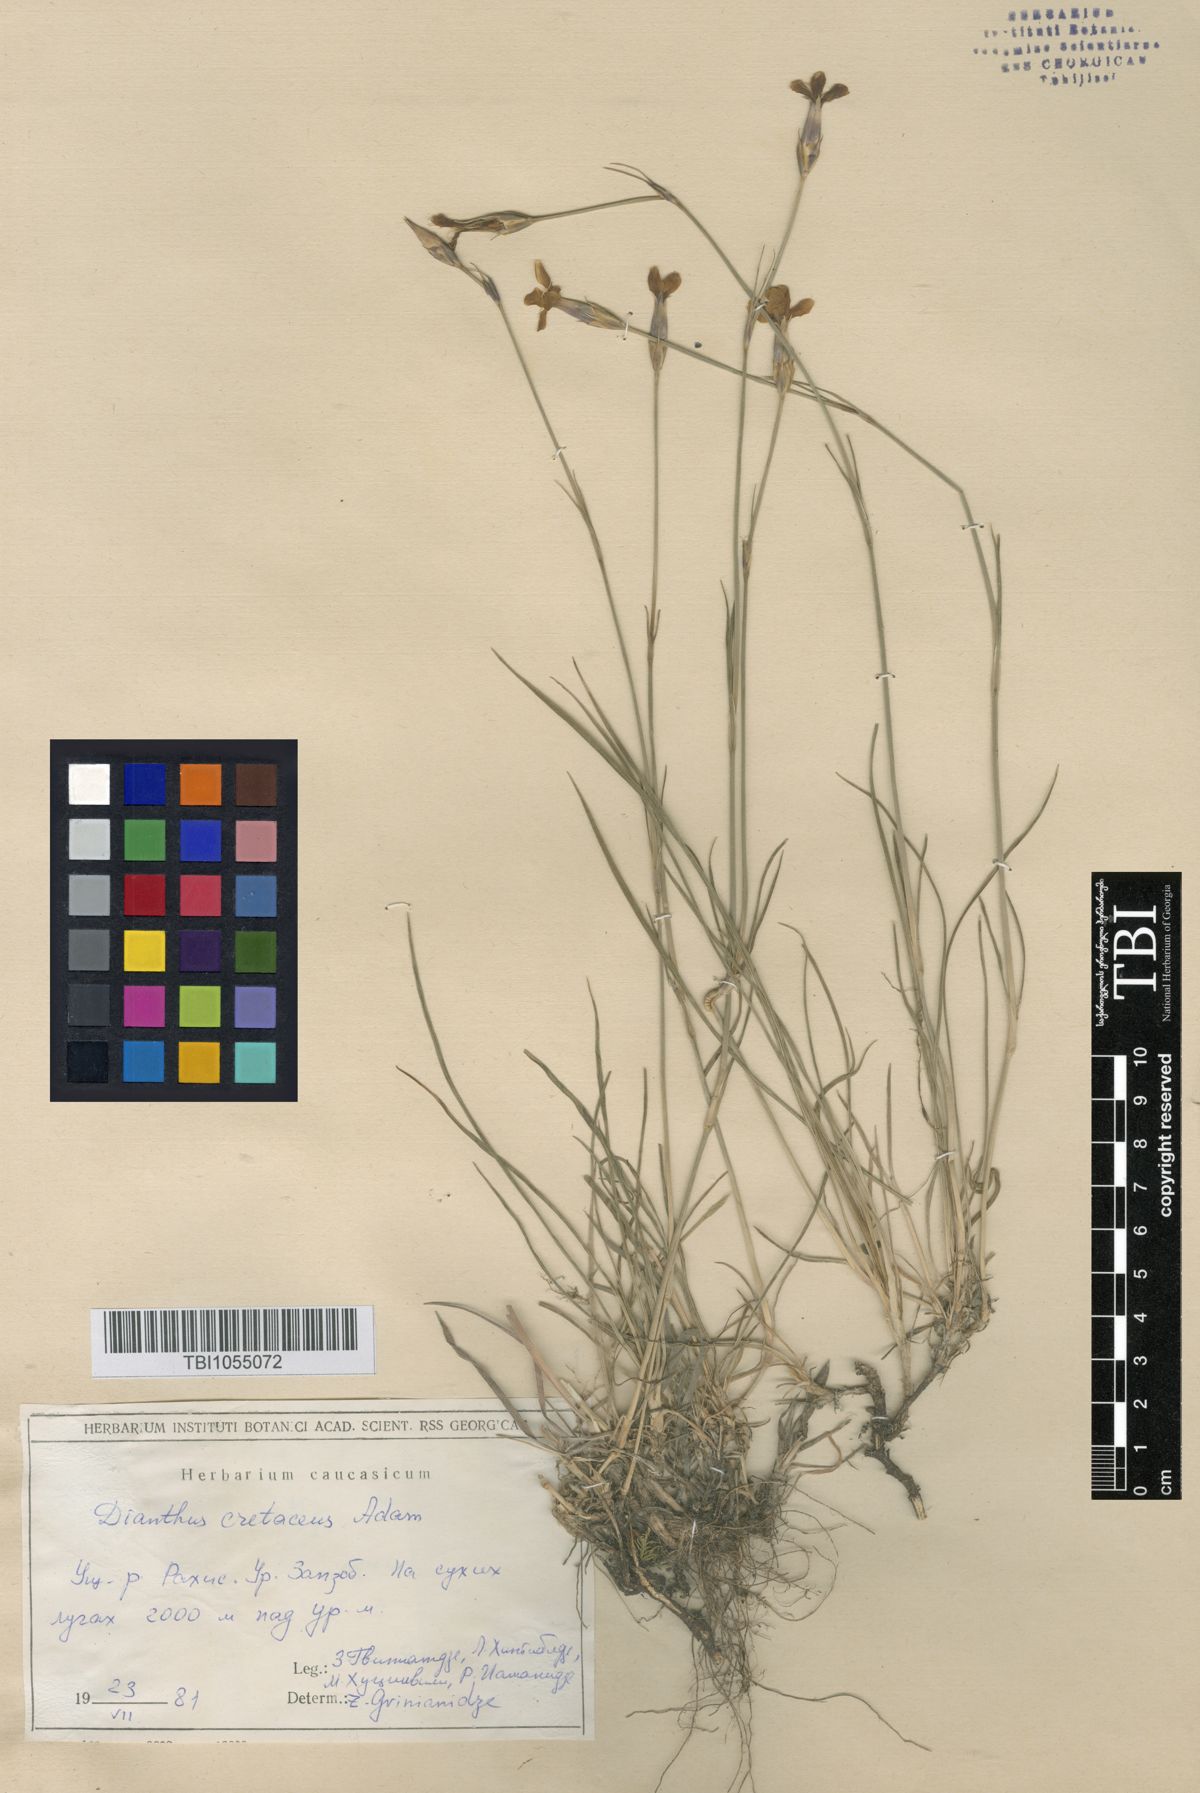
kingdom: Plantae
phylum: Tracheophyta
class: Magnoliopsida
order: Caryophyllales
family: Caryophyllaceae
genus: Dianthus
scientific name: Dianthus cretaceus
